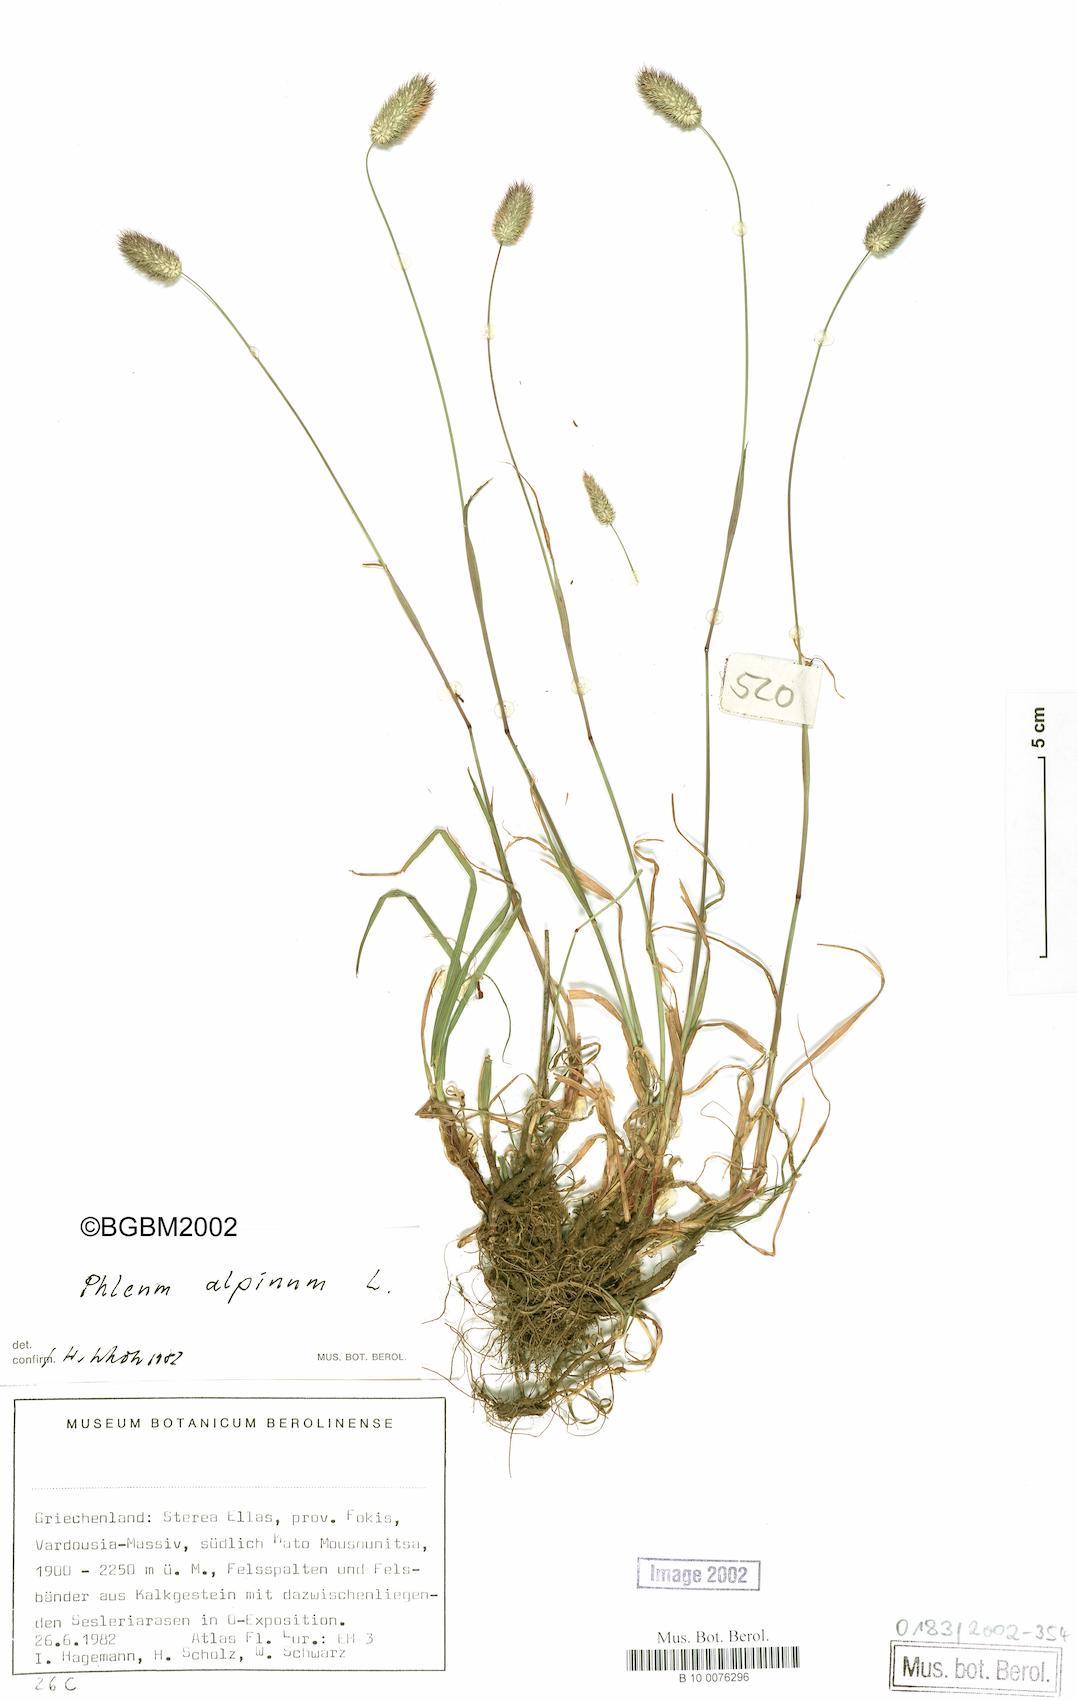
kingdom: Plantae
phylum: Tracheophyta
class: Liliopsida
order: Poales
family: Poaceae
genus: Phleum
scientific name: Phleum alpinum
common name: Alpine cat's-tail
